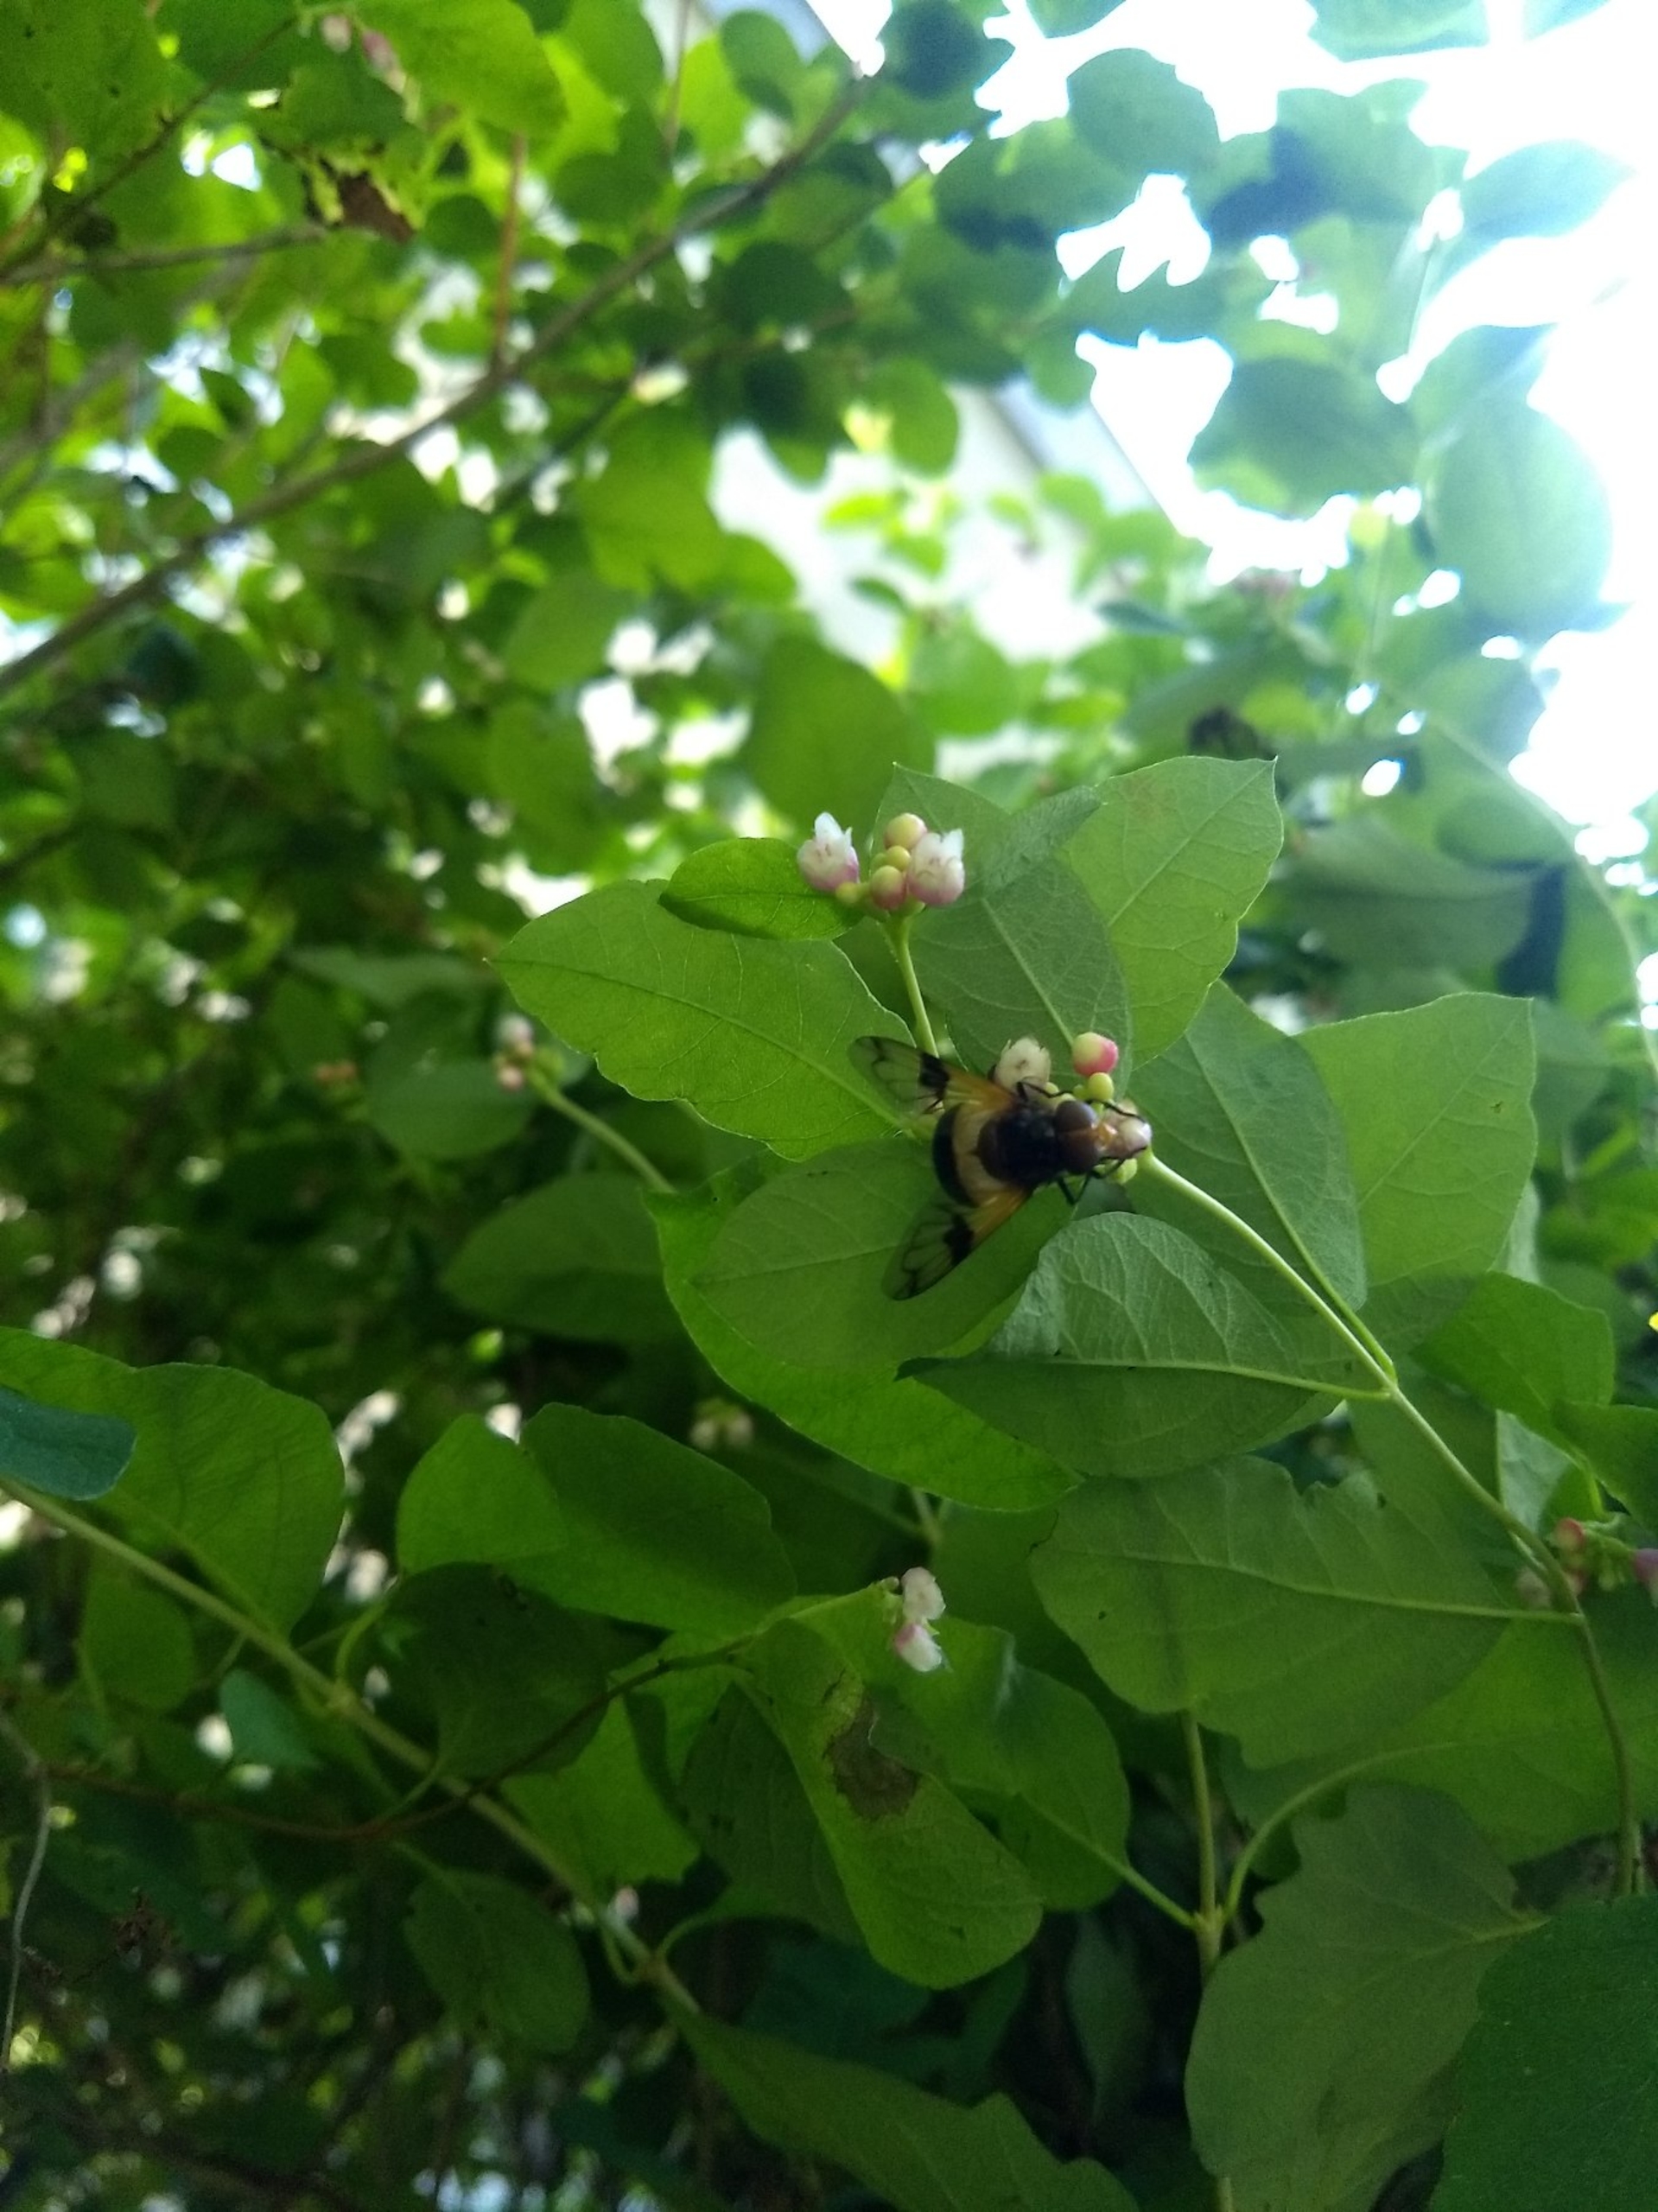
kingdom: Animalia
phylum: Arthropoda
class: Insecta
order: Diptera
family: Syrphidae
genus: Volucella
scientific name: Volucella pellucens
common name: Hvidbåndet humlesvirreflue
